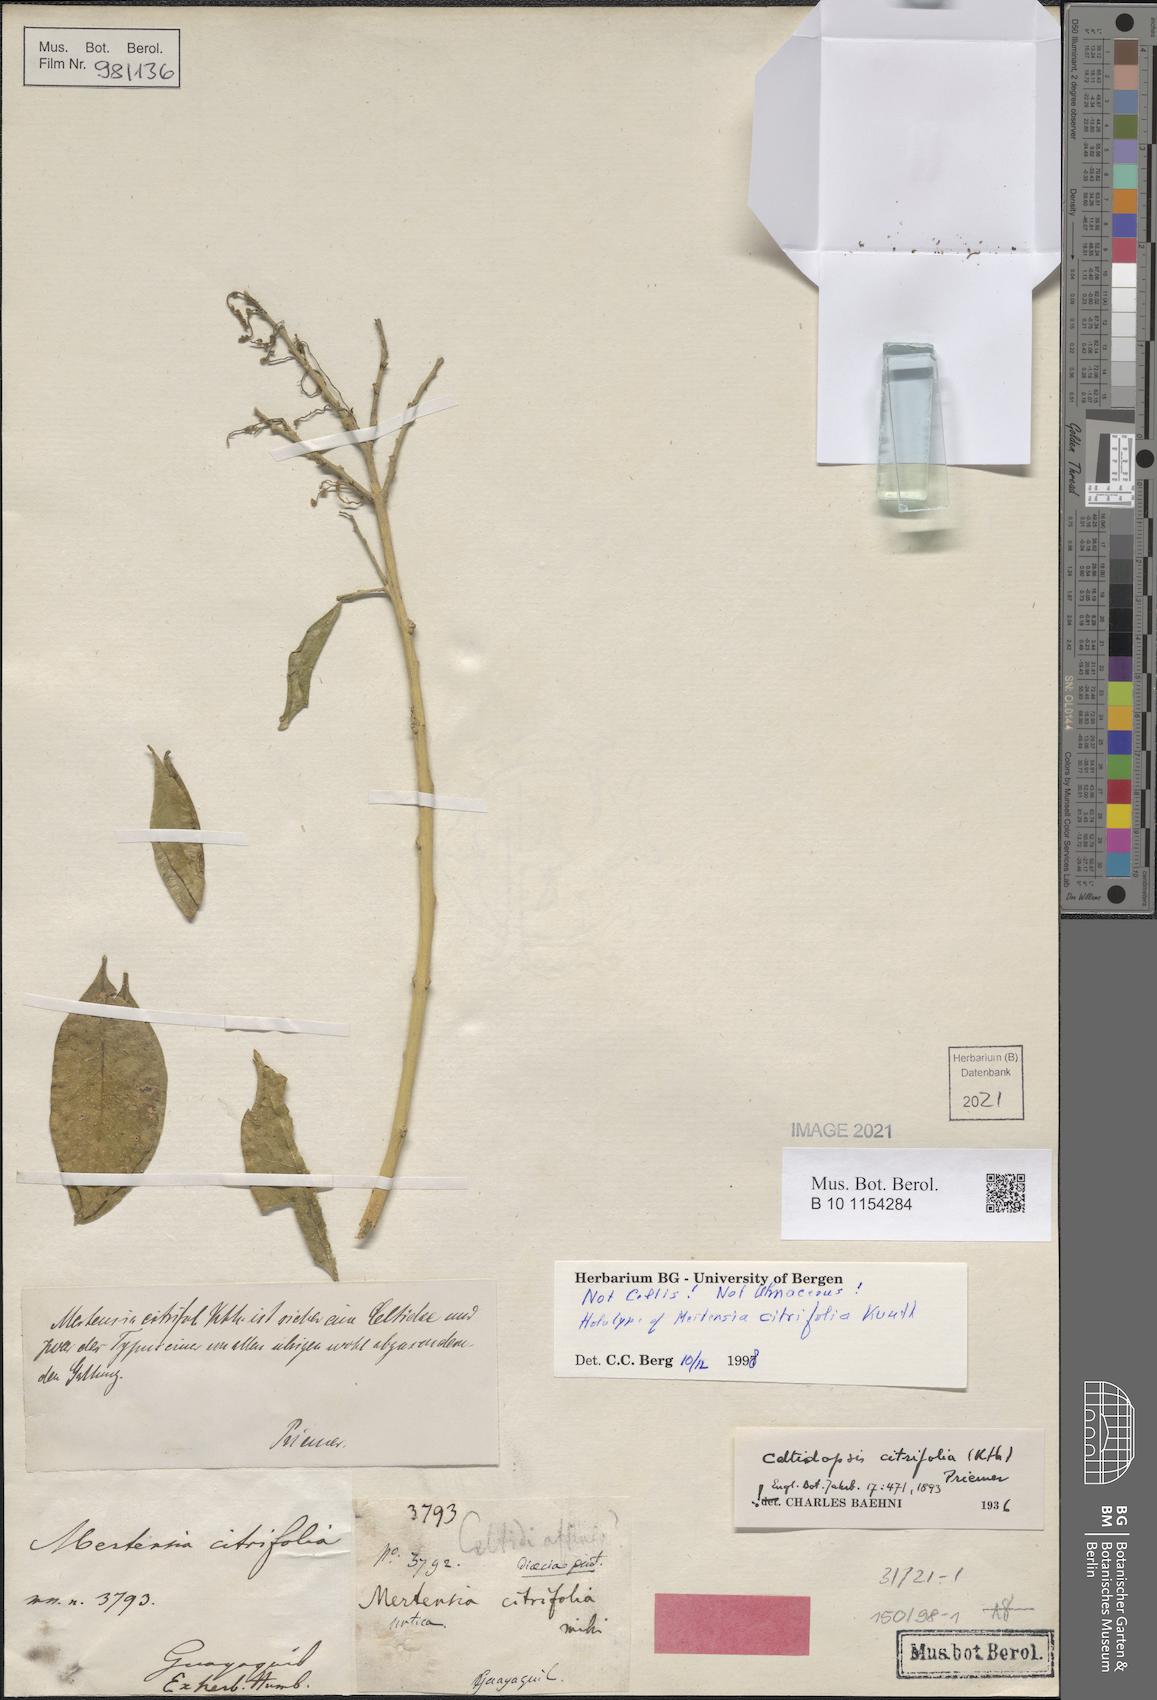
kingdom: Plantae
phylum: Tracheophyta
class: Magnoliopsida
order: Rosales
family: Cannabaceae
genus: Celtis
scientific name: Celtis iguanaea
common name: Iguana hackberry
